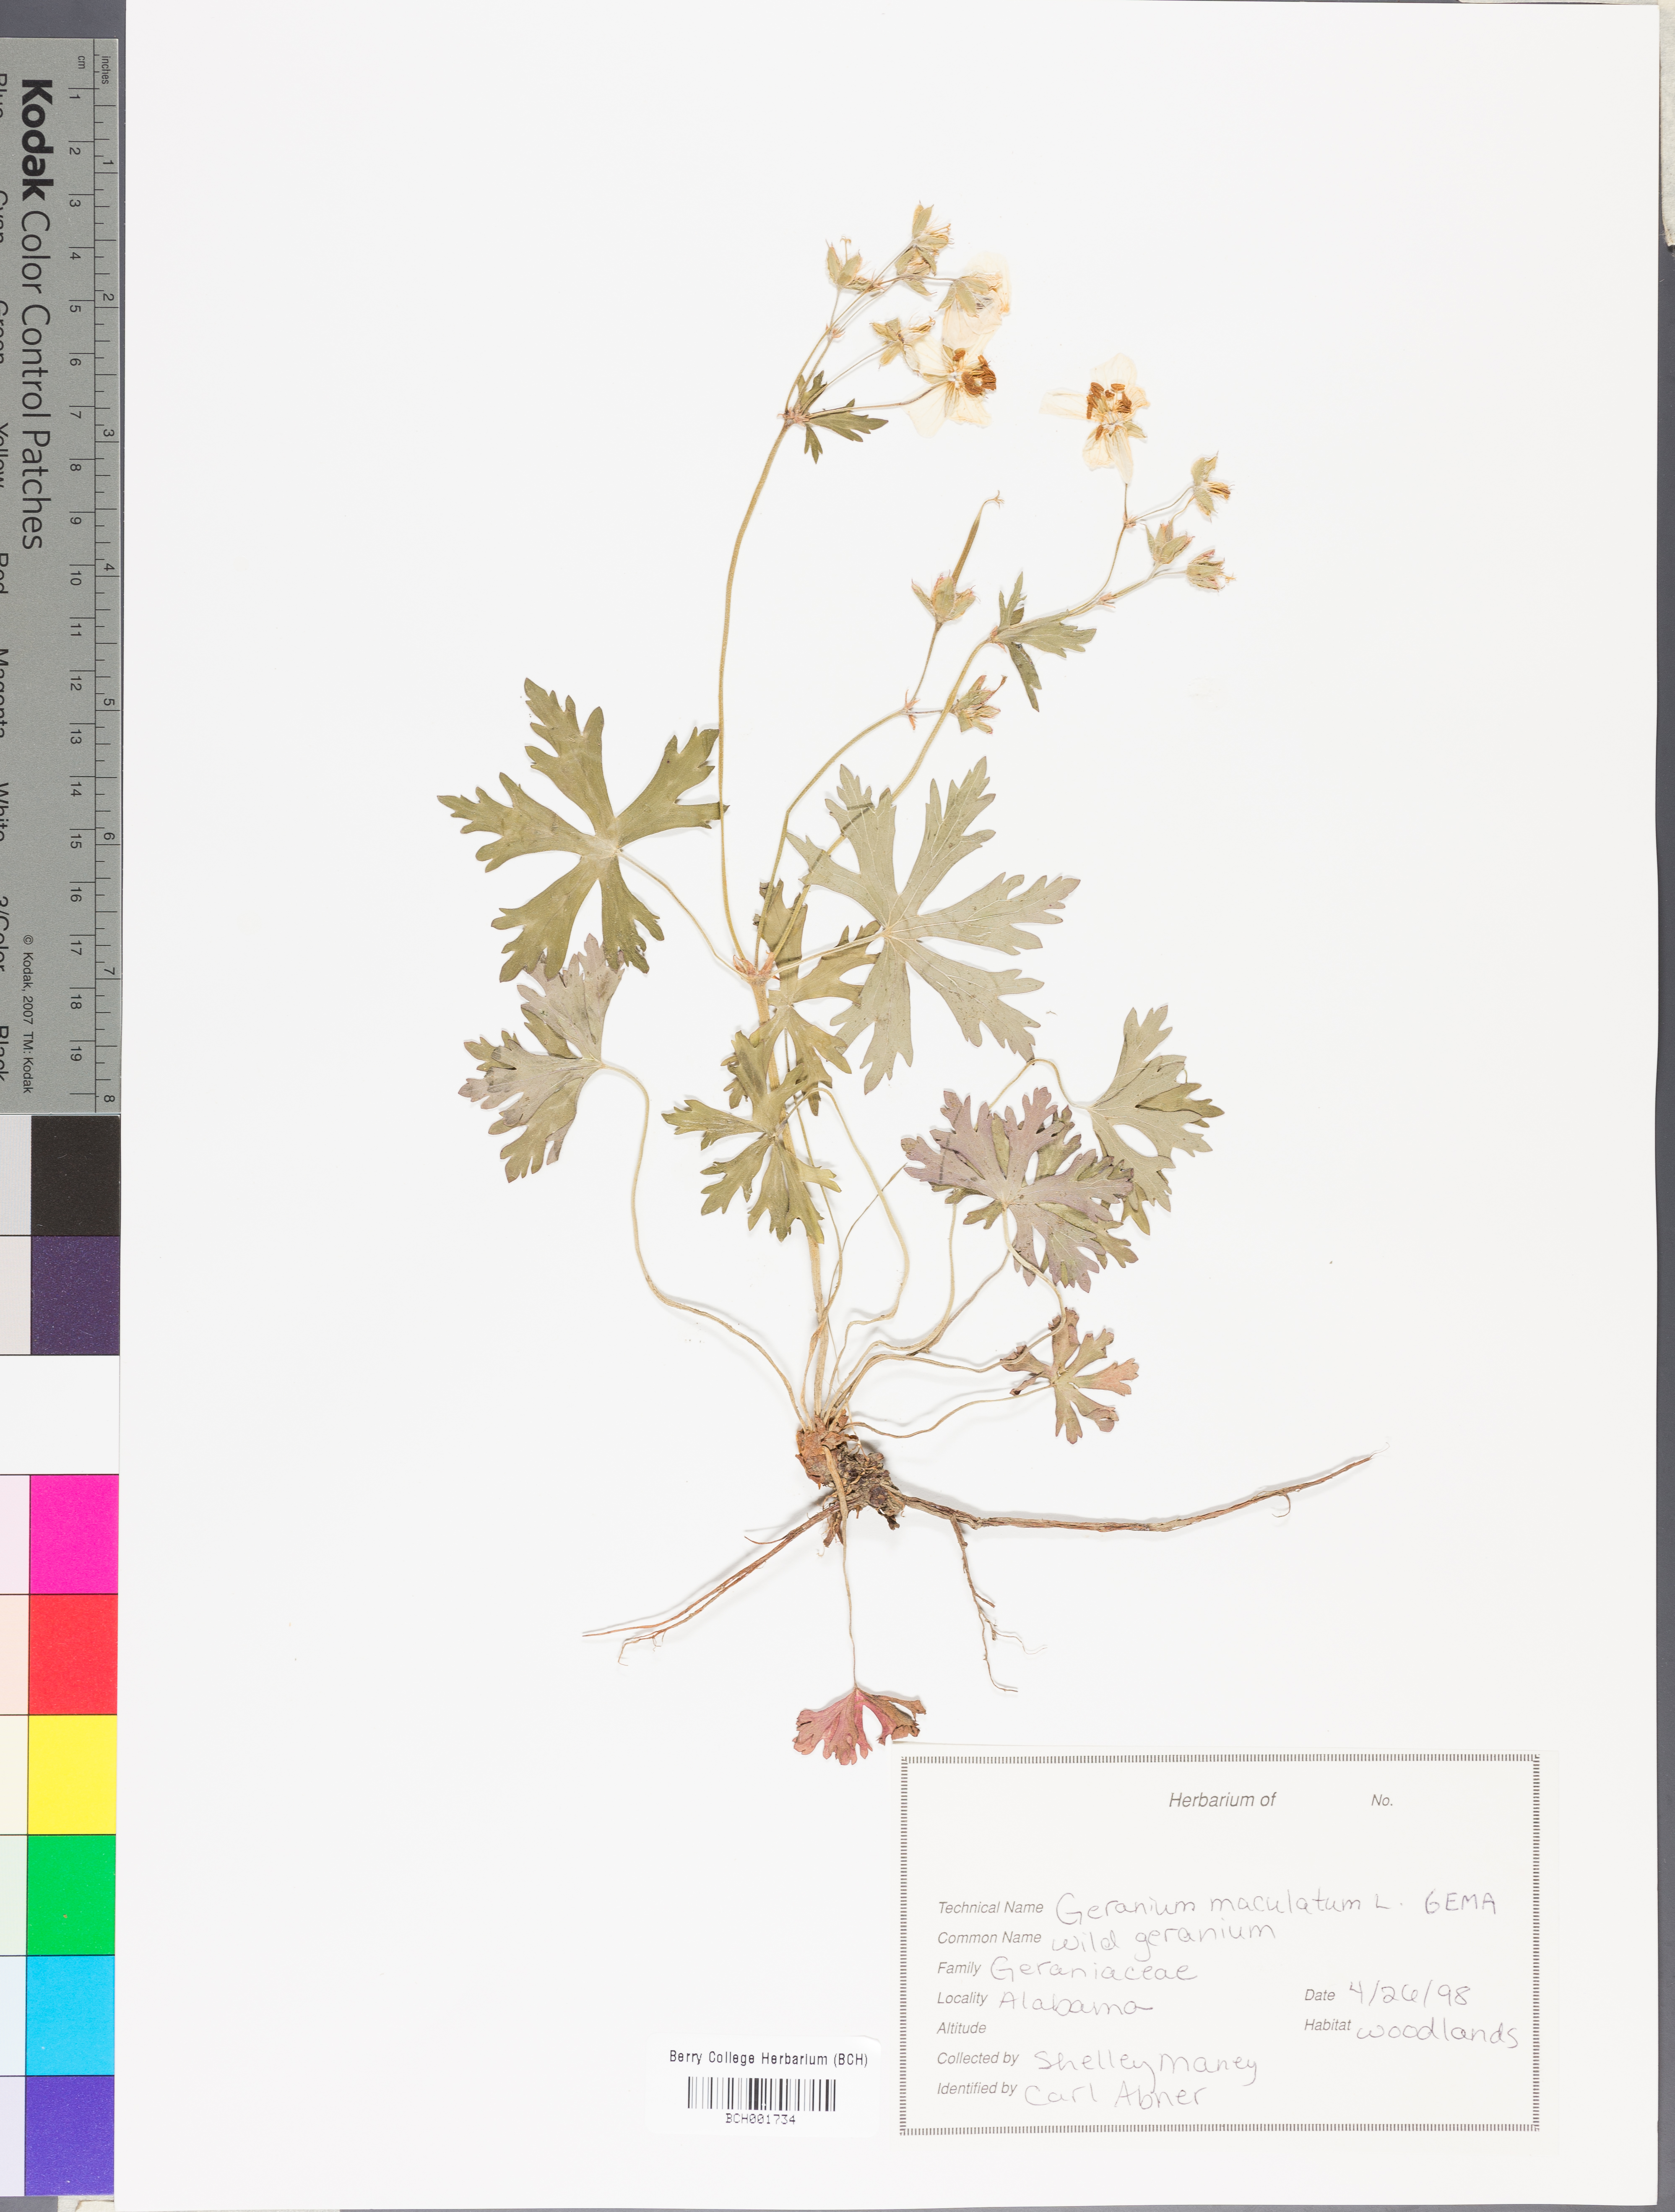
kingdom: Plantae
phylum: Tracheophyta
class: Magnoliopsida
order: Geraniales
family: Geraniaceae
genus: Geranium
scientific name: Geranium maculatum
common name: Spotted geranium
